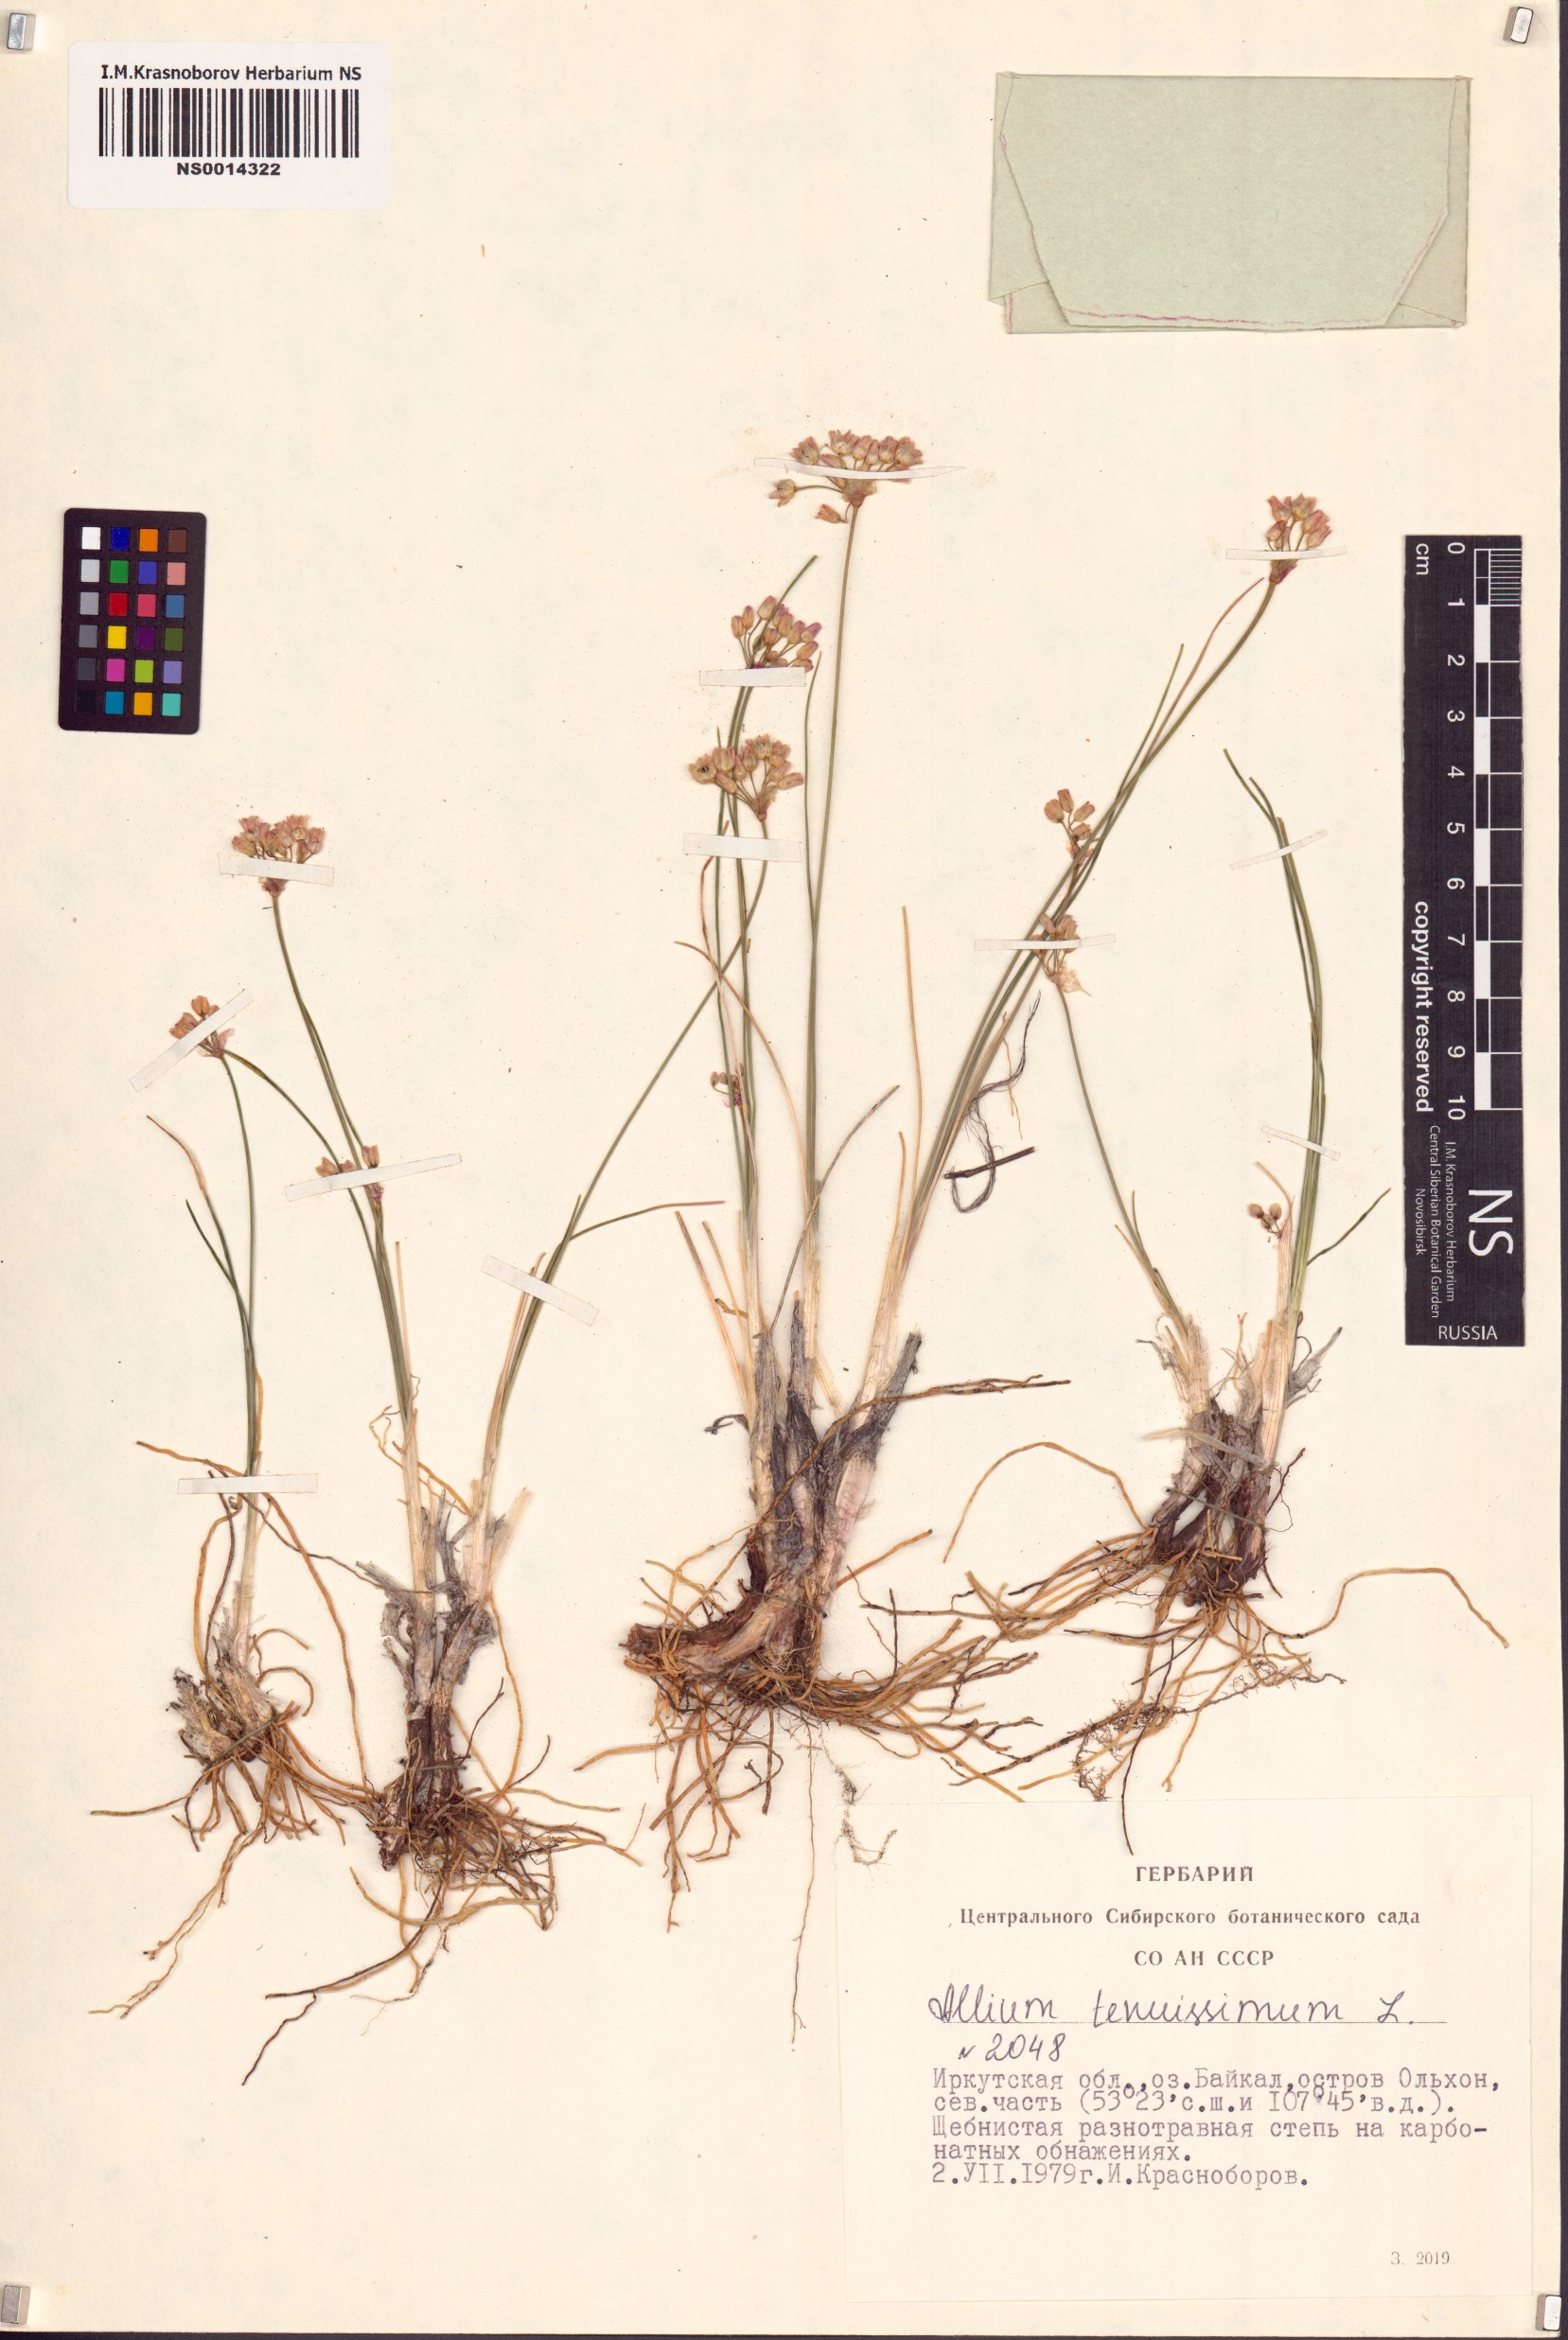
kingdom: Plantae
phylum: Tracheophyta
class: Liliopsida
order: Asparagales
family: Amaryllidaceae
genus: Allium
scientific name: Allium tenuissimum
